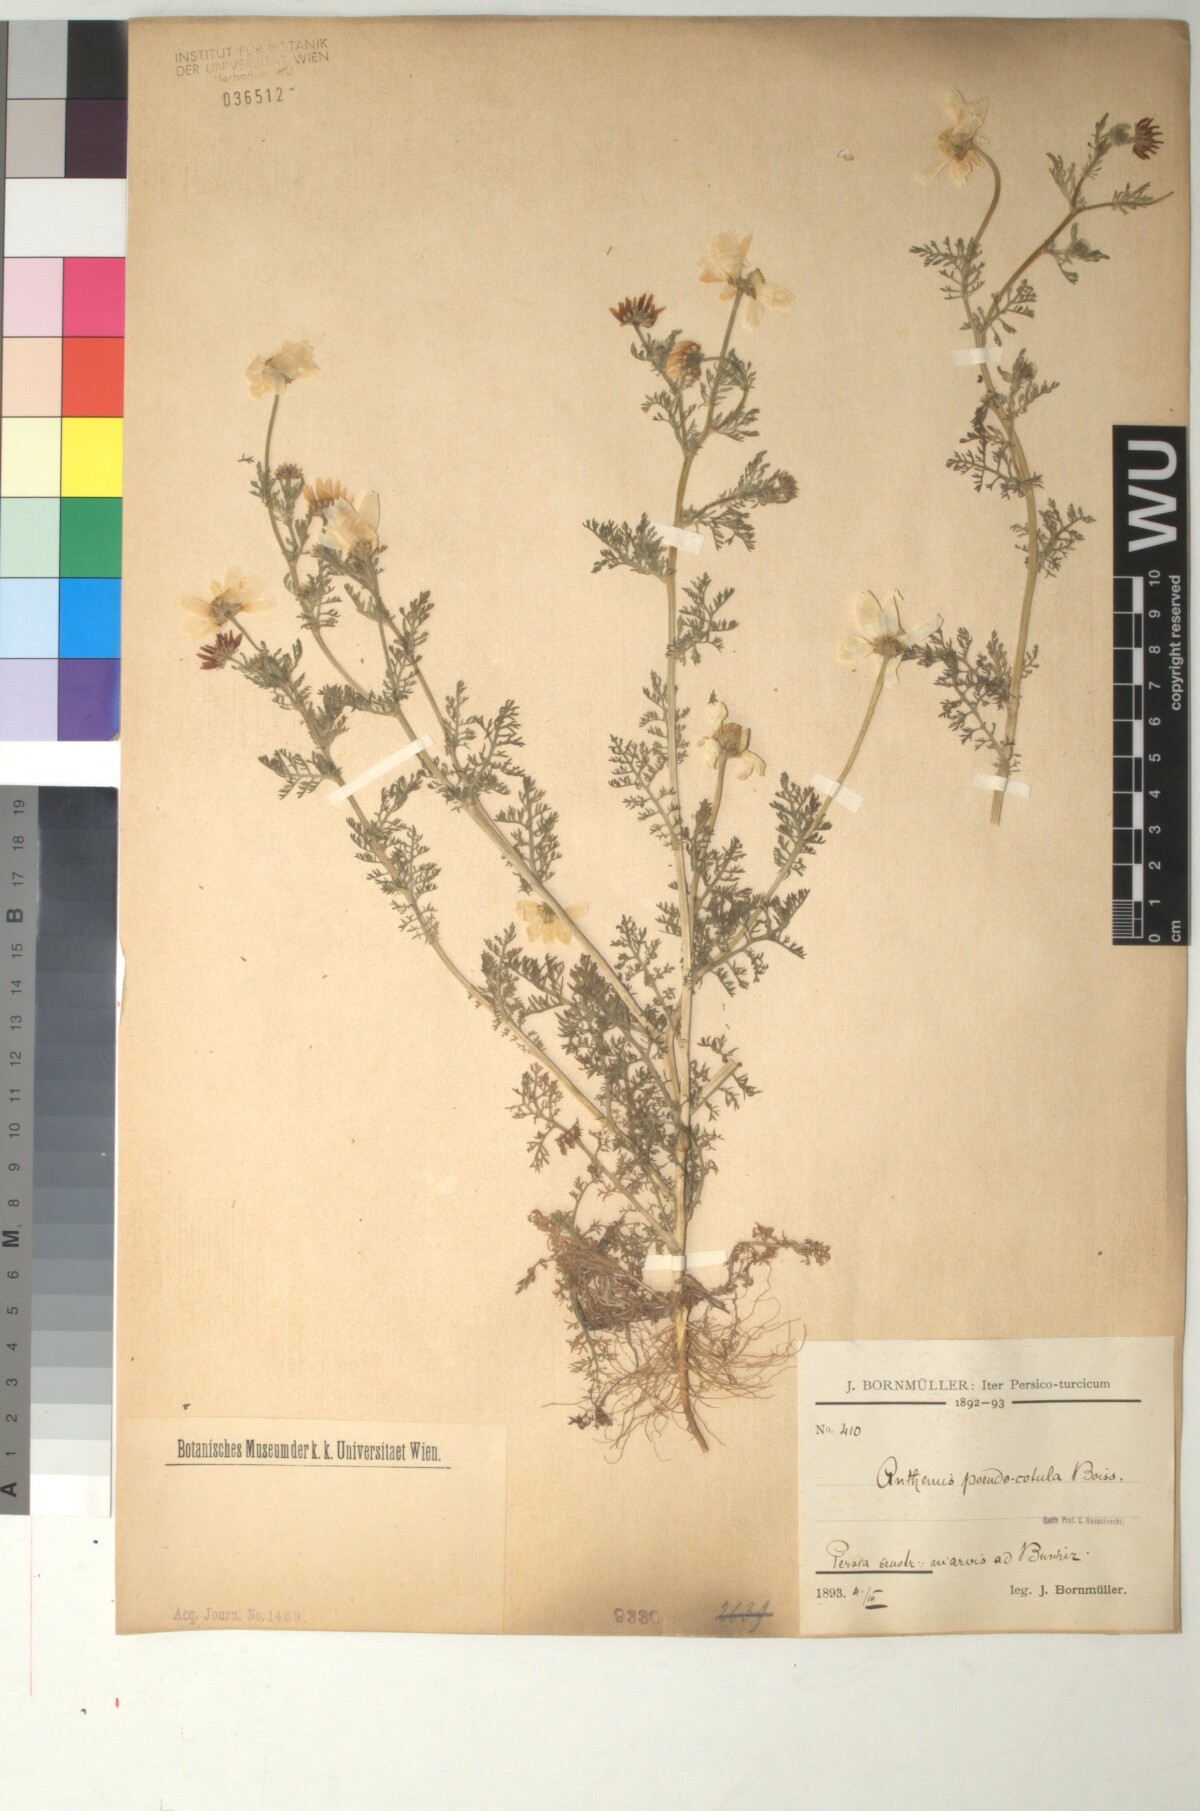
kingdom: Plantae
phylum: Tracheophyta
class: Magnoliopsida
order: Asterales
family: Asteraceae
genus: Anthemis
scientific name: Anthemis pseudocotula
